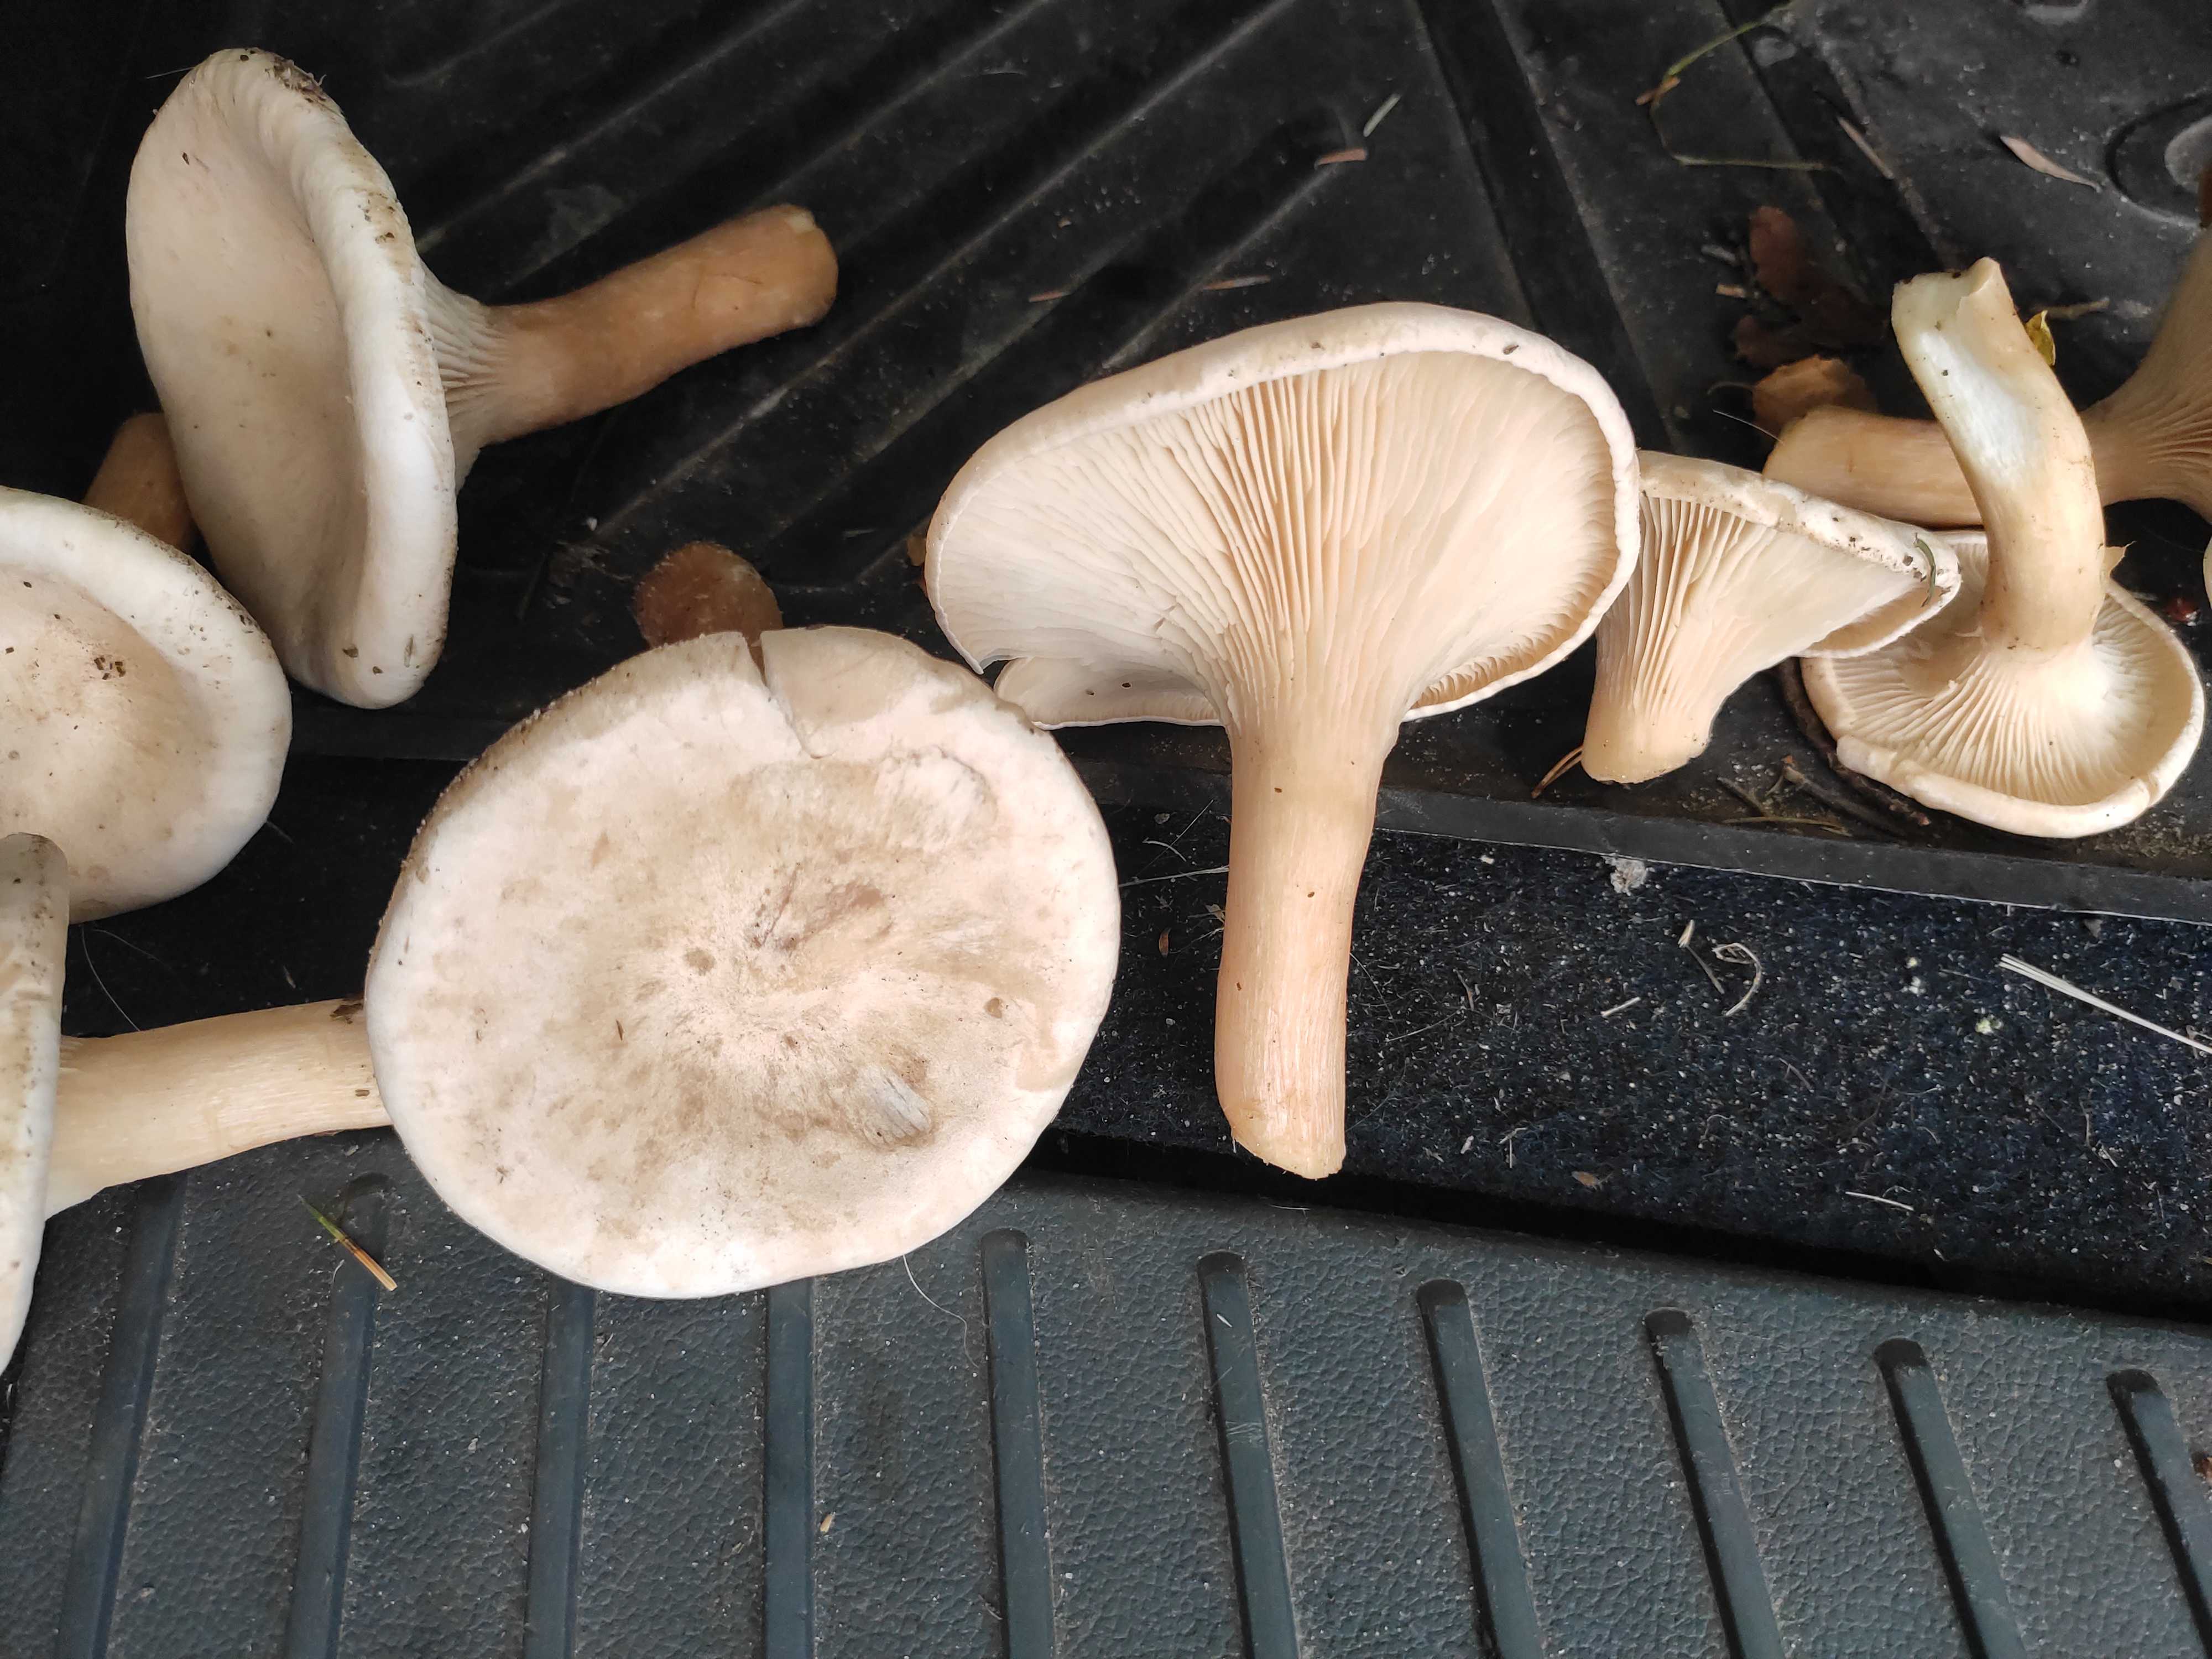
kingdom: Fungi
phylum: Basidiomycota
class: Agaricomycetes
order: Agaricales
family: Tricholomataceae
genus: Infundibulicybe
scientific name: Infundibulicybe geotropa
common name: stor tragthat
